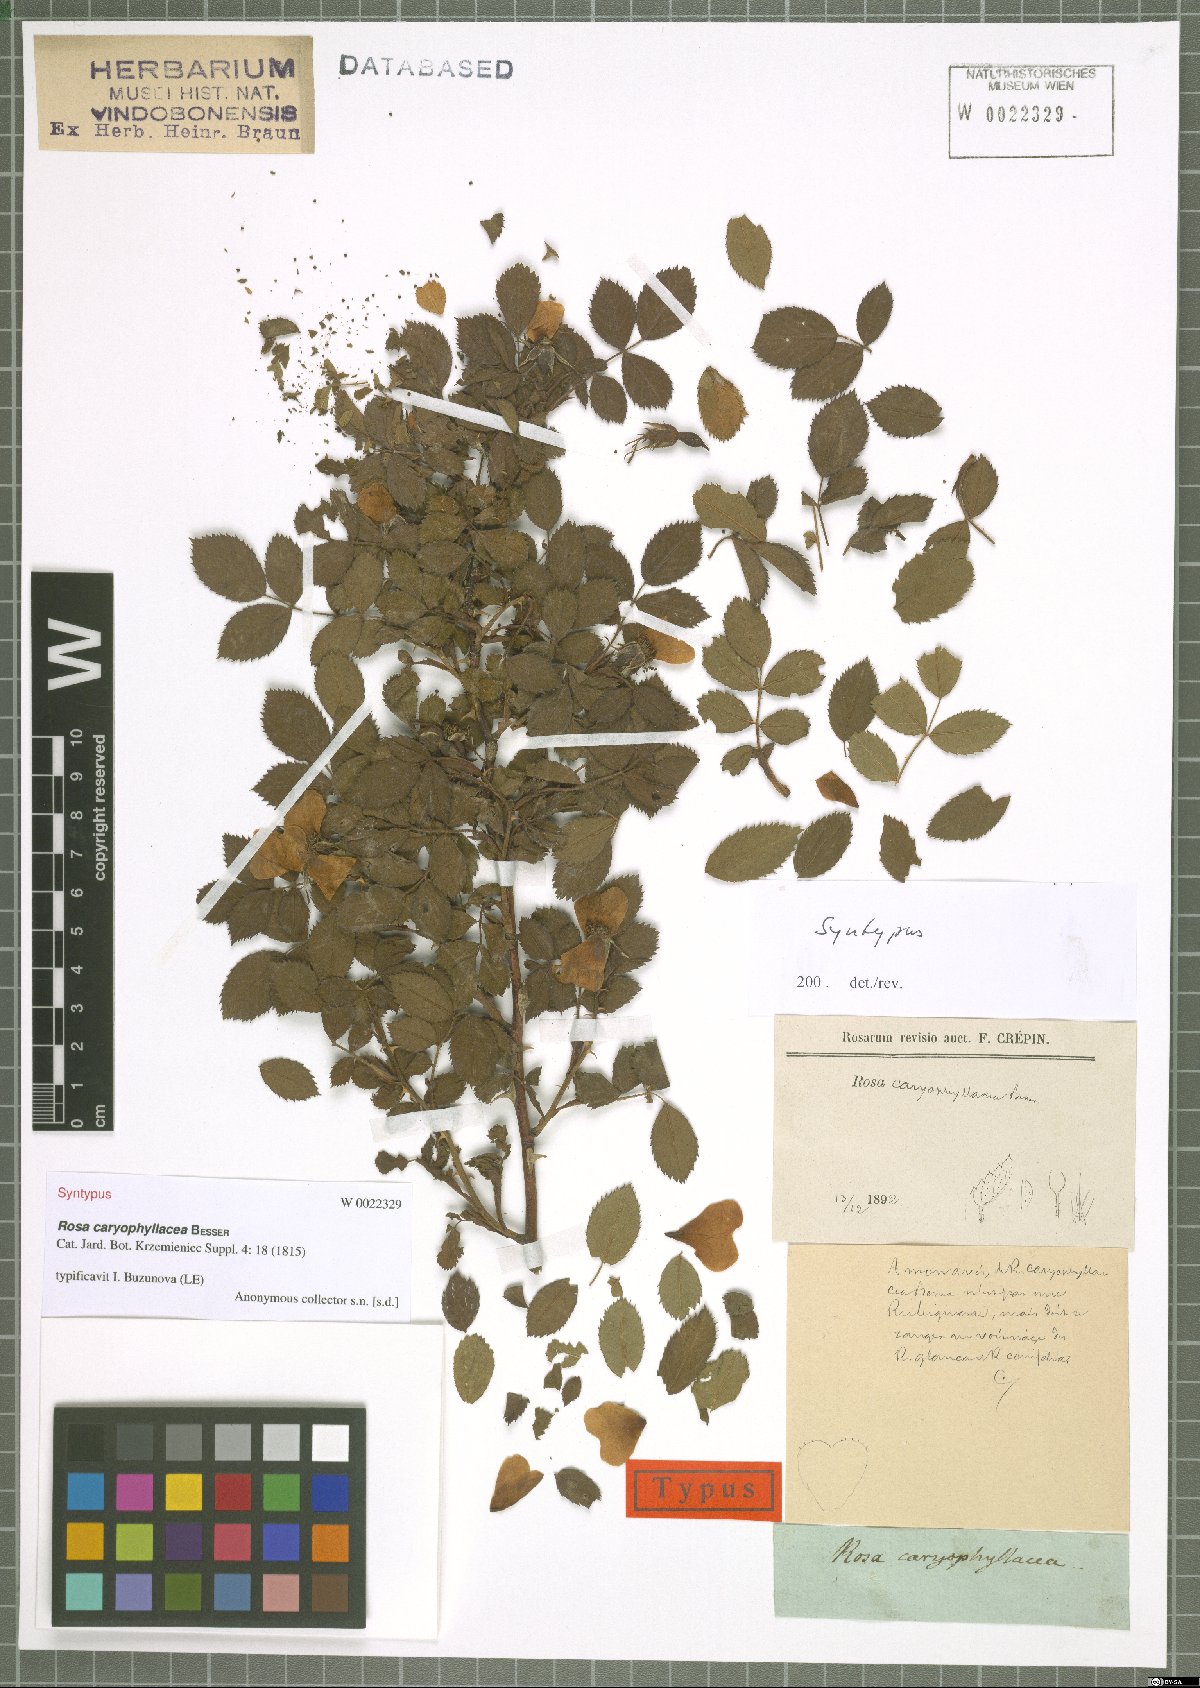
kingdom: Plantae
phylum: Tracheophyta
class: Magnoliopsida
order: Rosales
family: Rosaceae
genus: Rosa
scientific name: Rosa caryophyllacea
